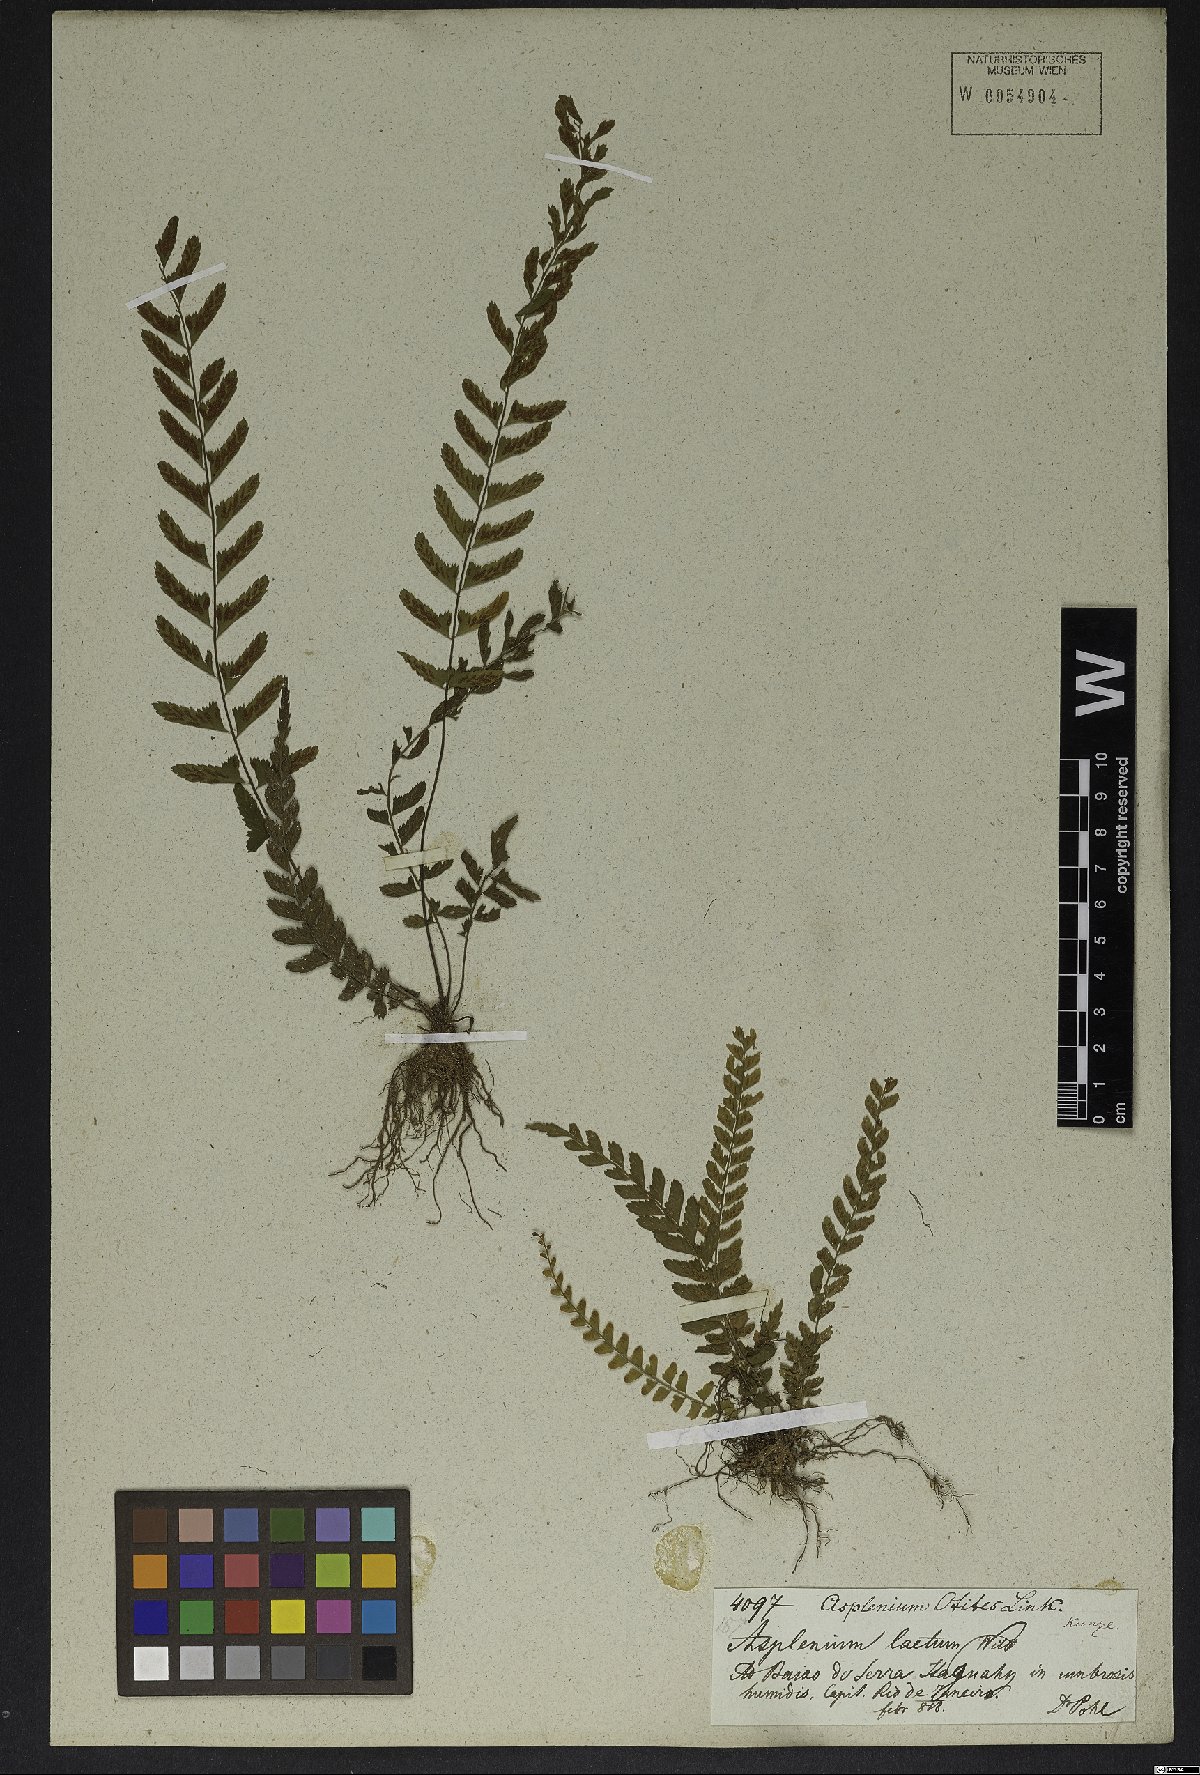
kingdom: Plantae
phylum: Tracheophyta
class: Polypodiopsida
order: Polypodiales
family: Aspleniaceae
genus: Asplenium
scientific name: Asplenium pulchellum
